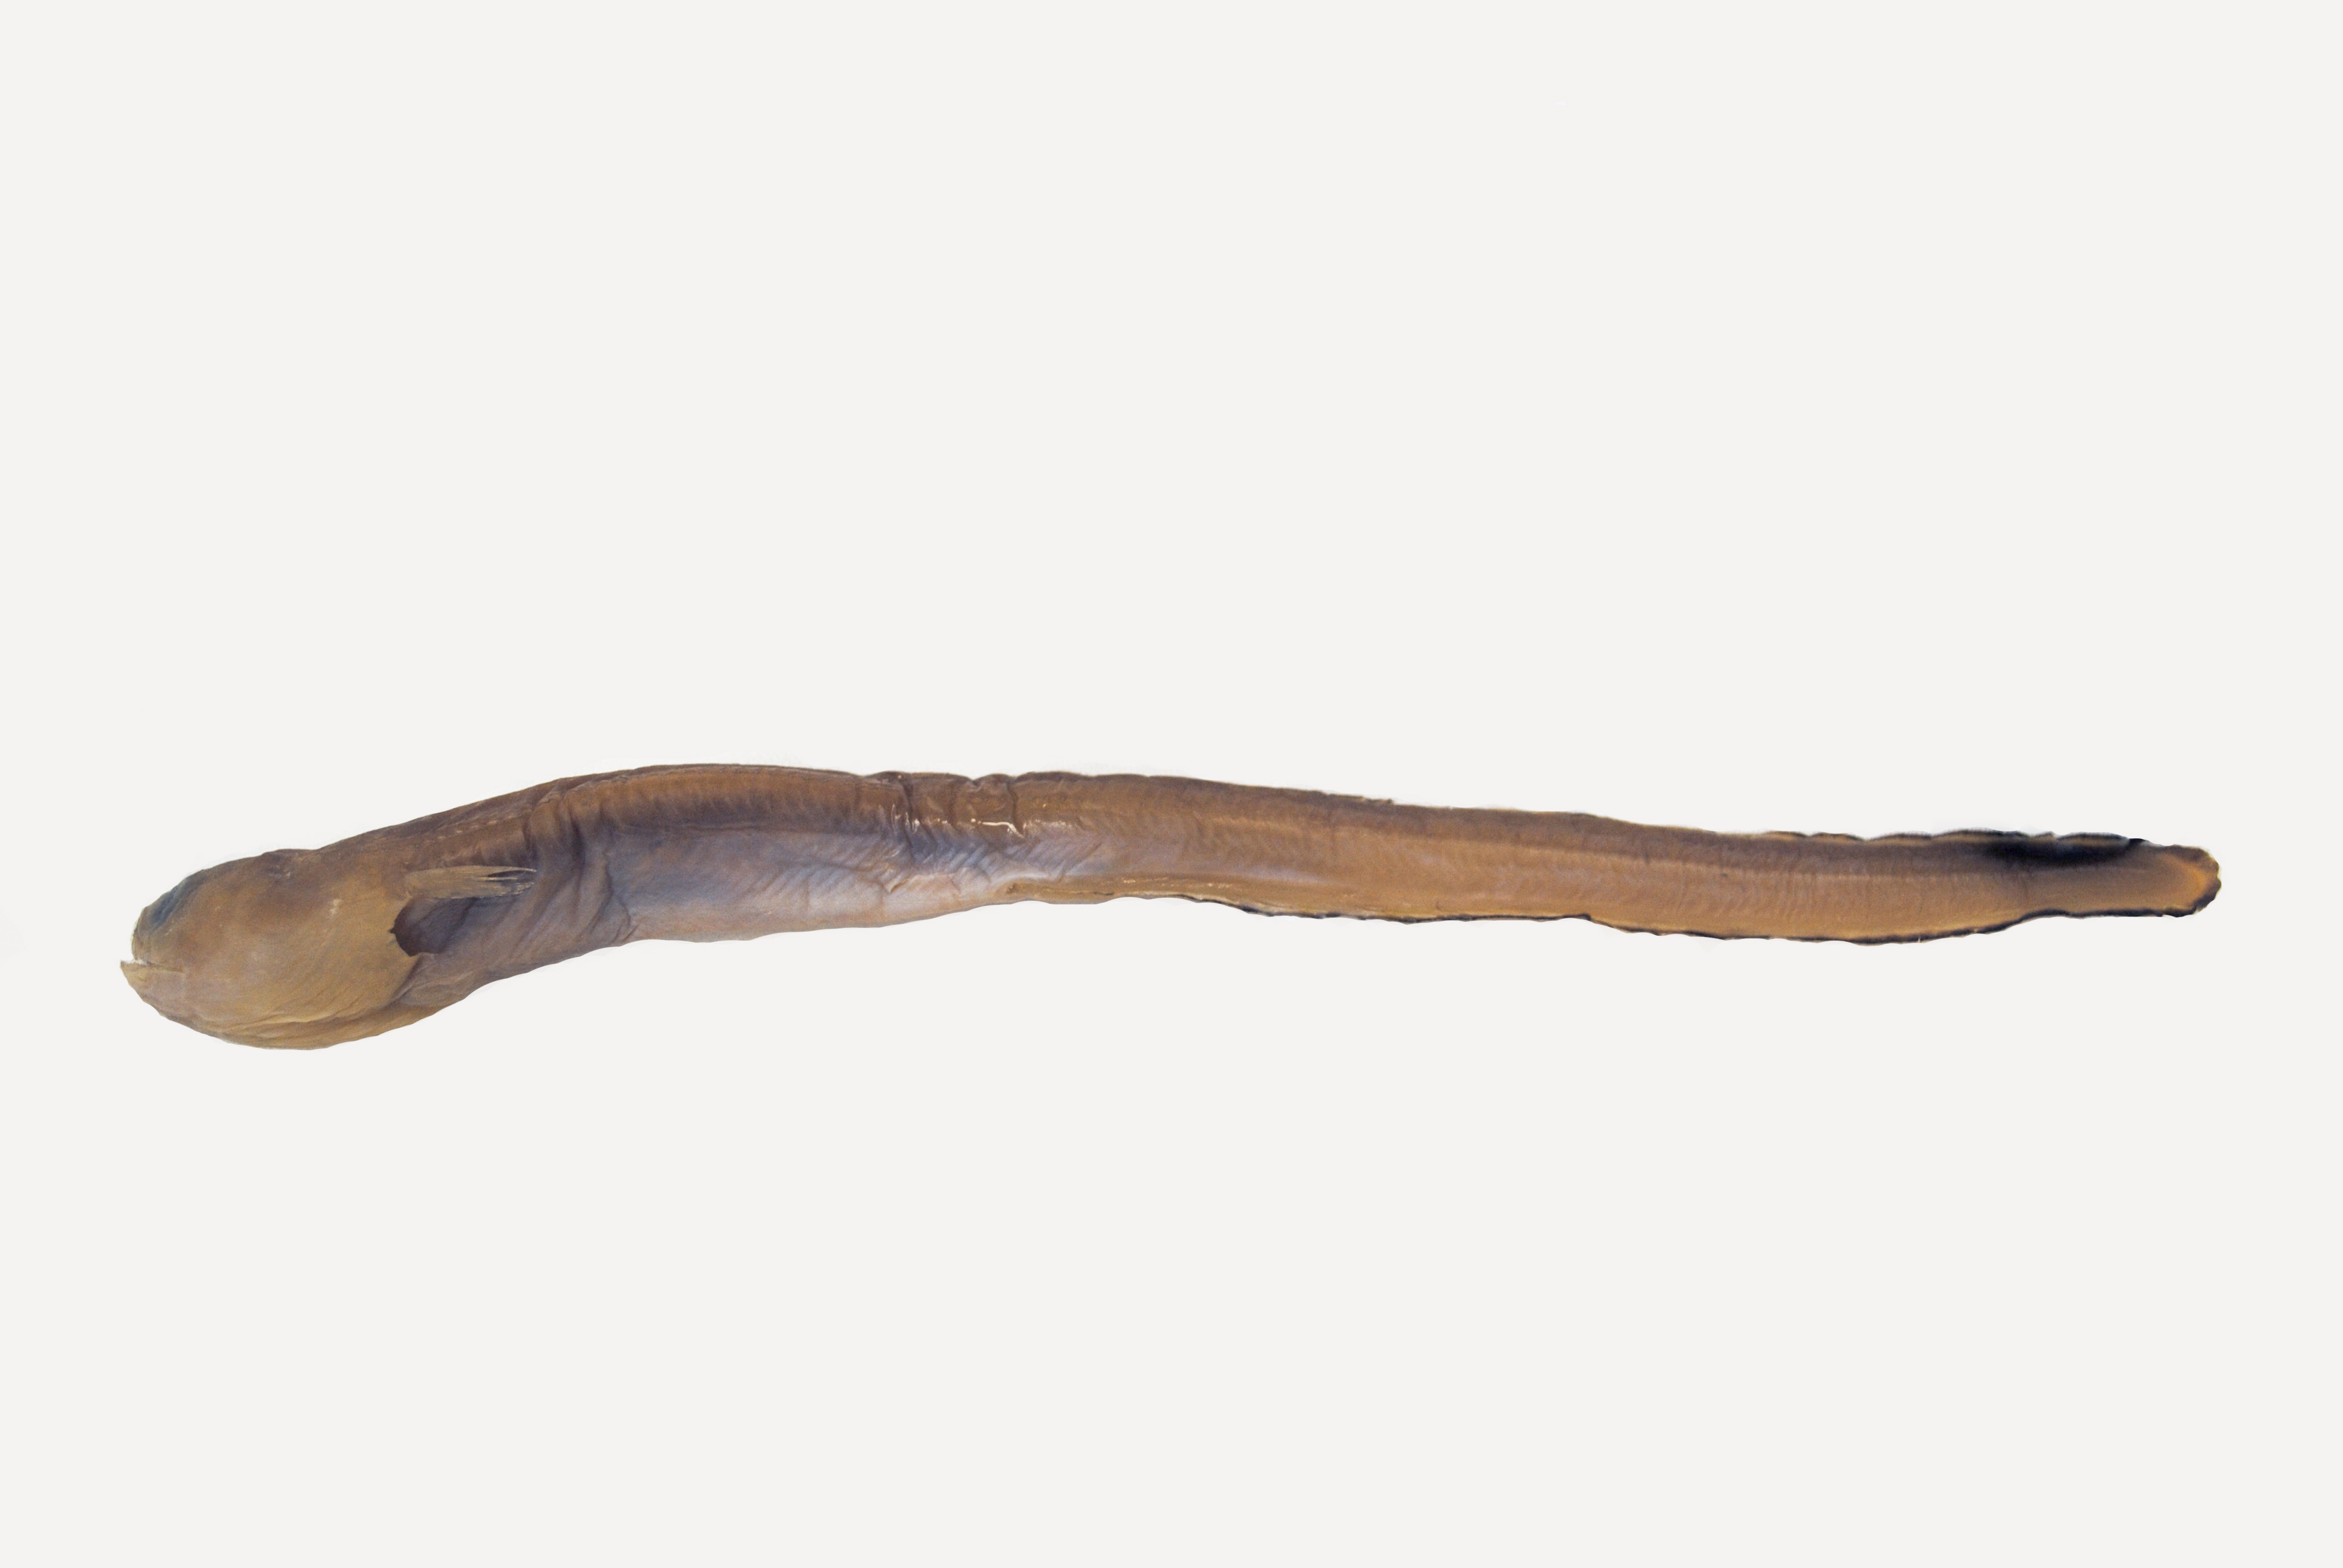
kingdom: Animalia
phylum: Chordata
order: Anguilliformes
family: Congridae
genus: Kenyaconger
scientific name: Kenyaconger heemstrai
